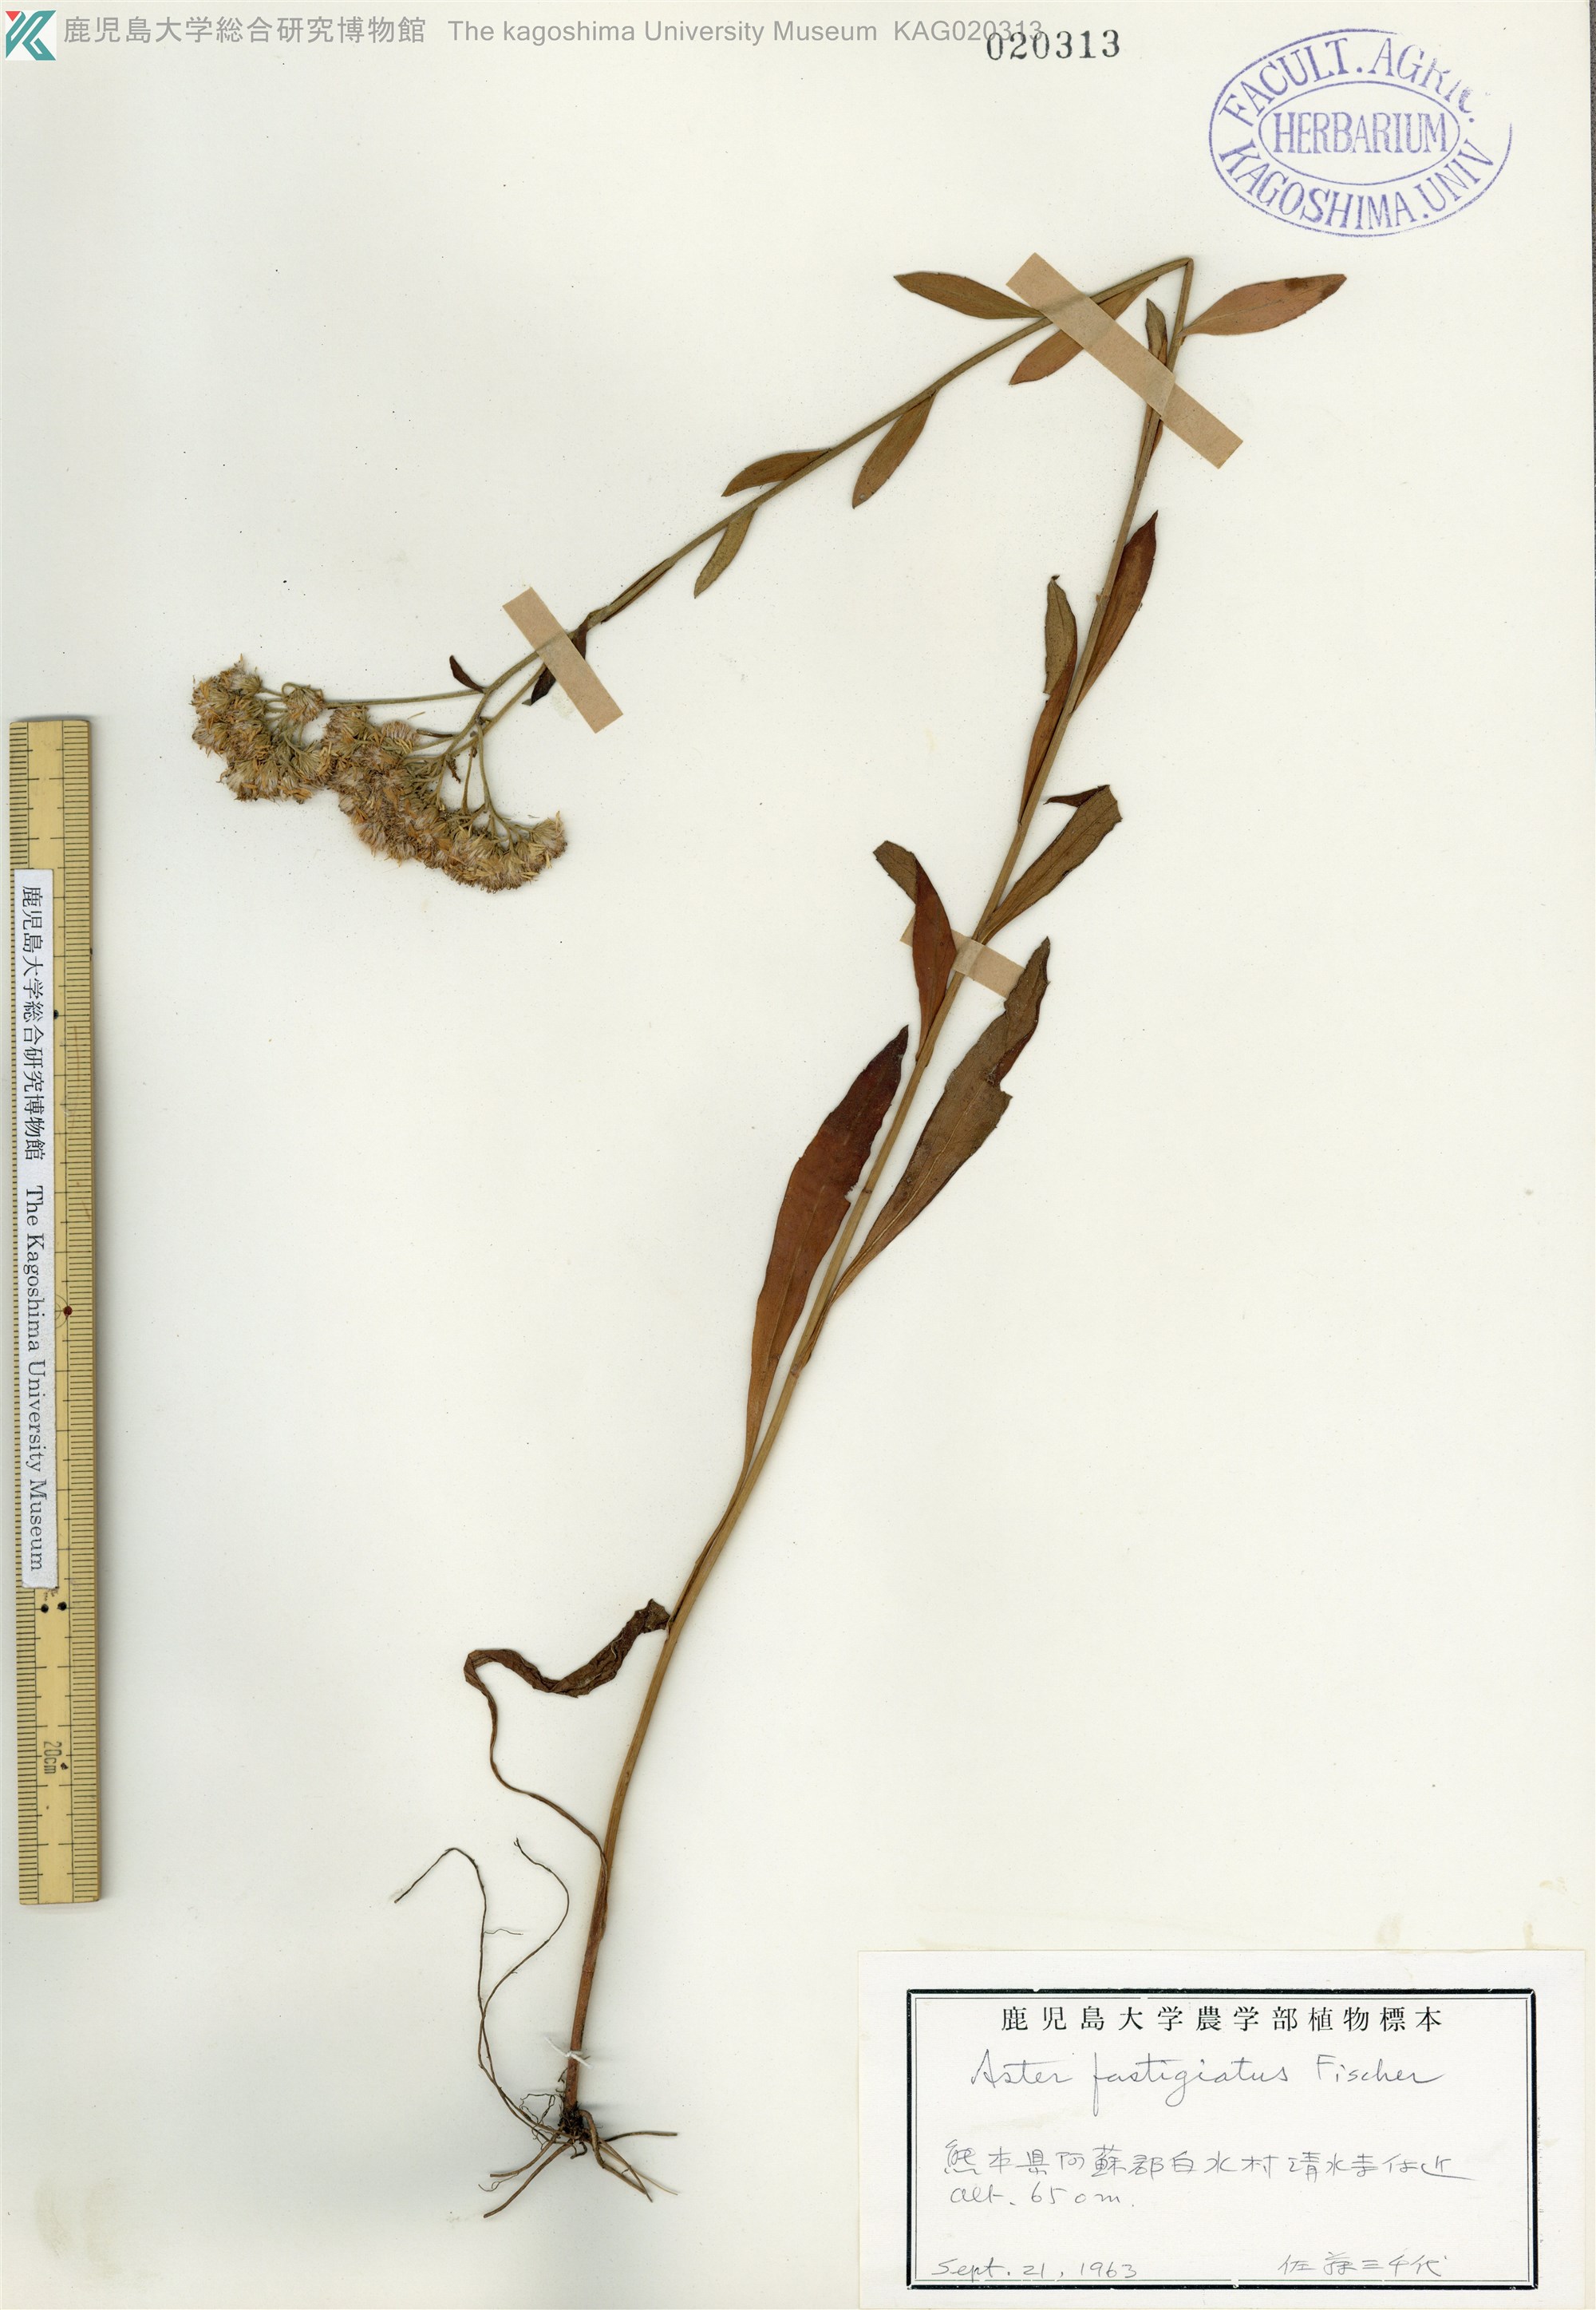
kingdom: Plantae
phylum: Tracheophyta
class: Magnoliopsida
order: Asterales
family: Asteraceae
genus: Turczaninovia
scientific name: Turczaninovia fastigiata
